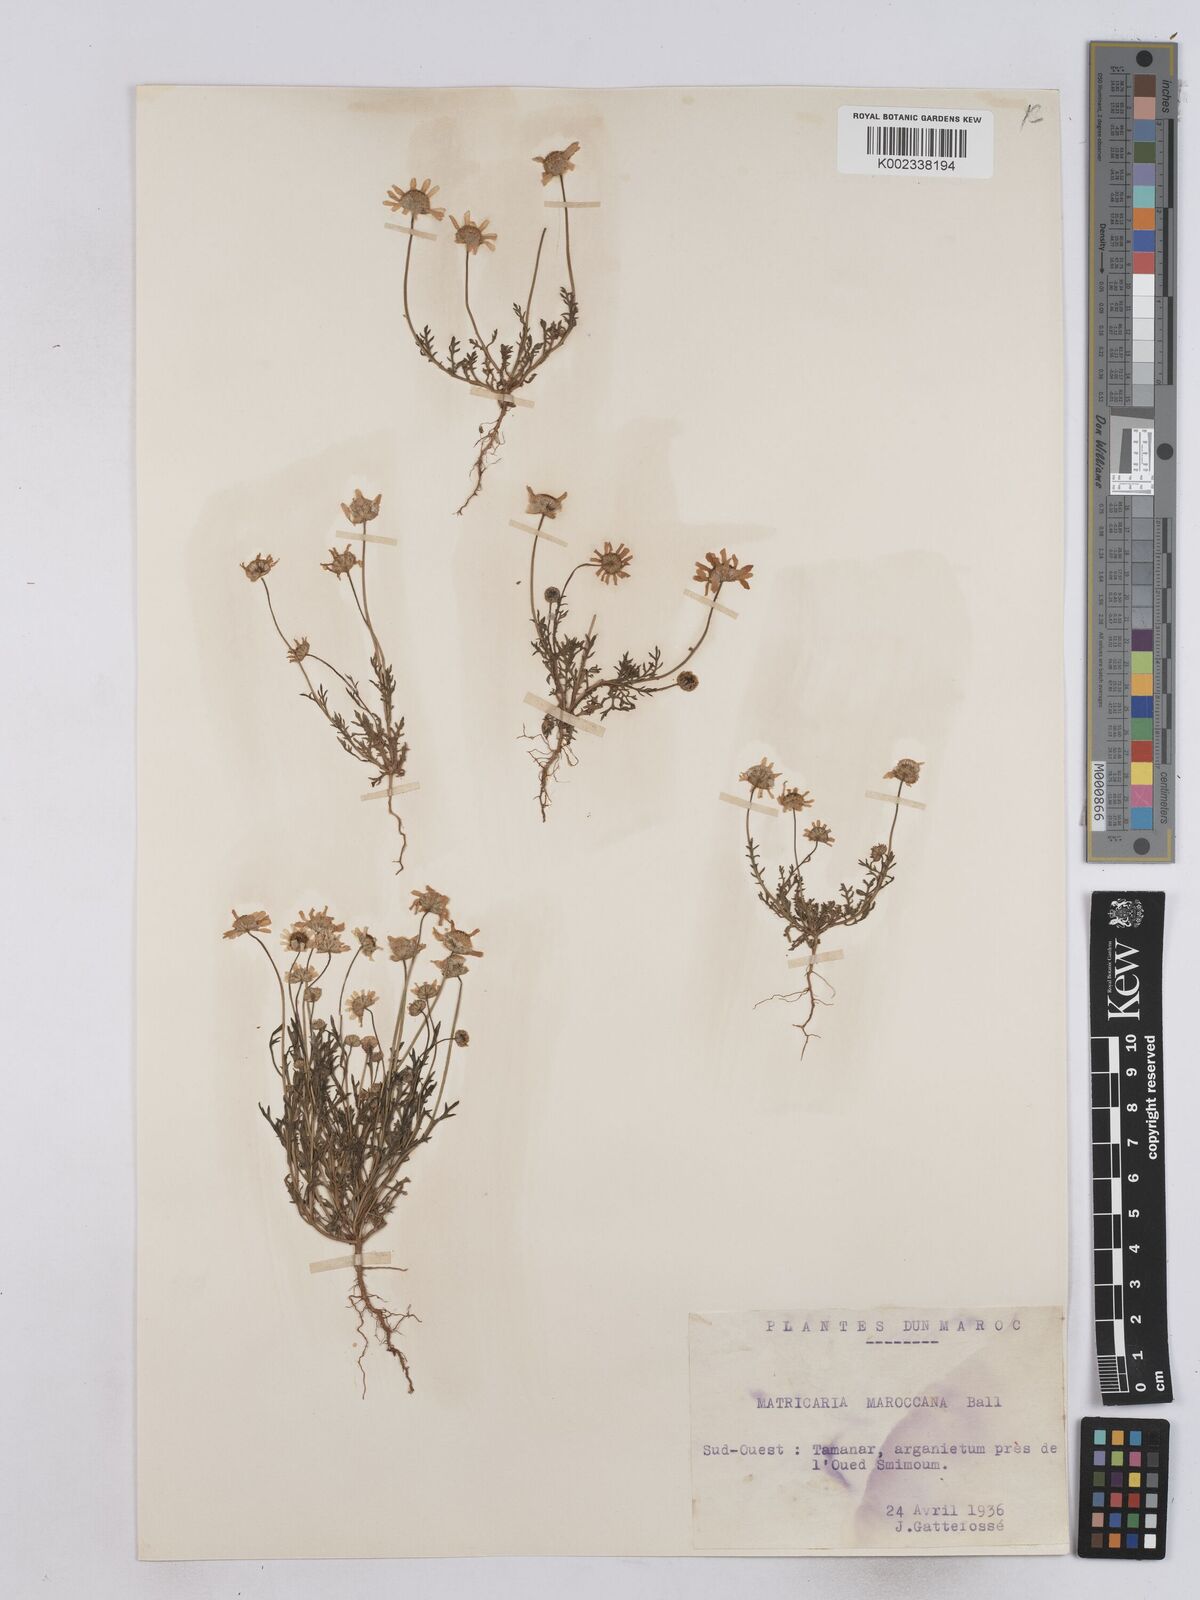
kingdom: Plantae
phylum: Tracheophyta
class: Magnoliopsida
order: Asterales
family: Asteraceae
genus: Otoglyphis
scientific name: Otoglyphis pubescens
